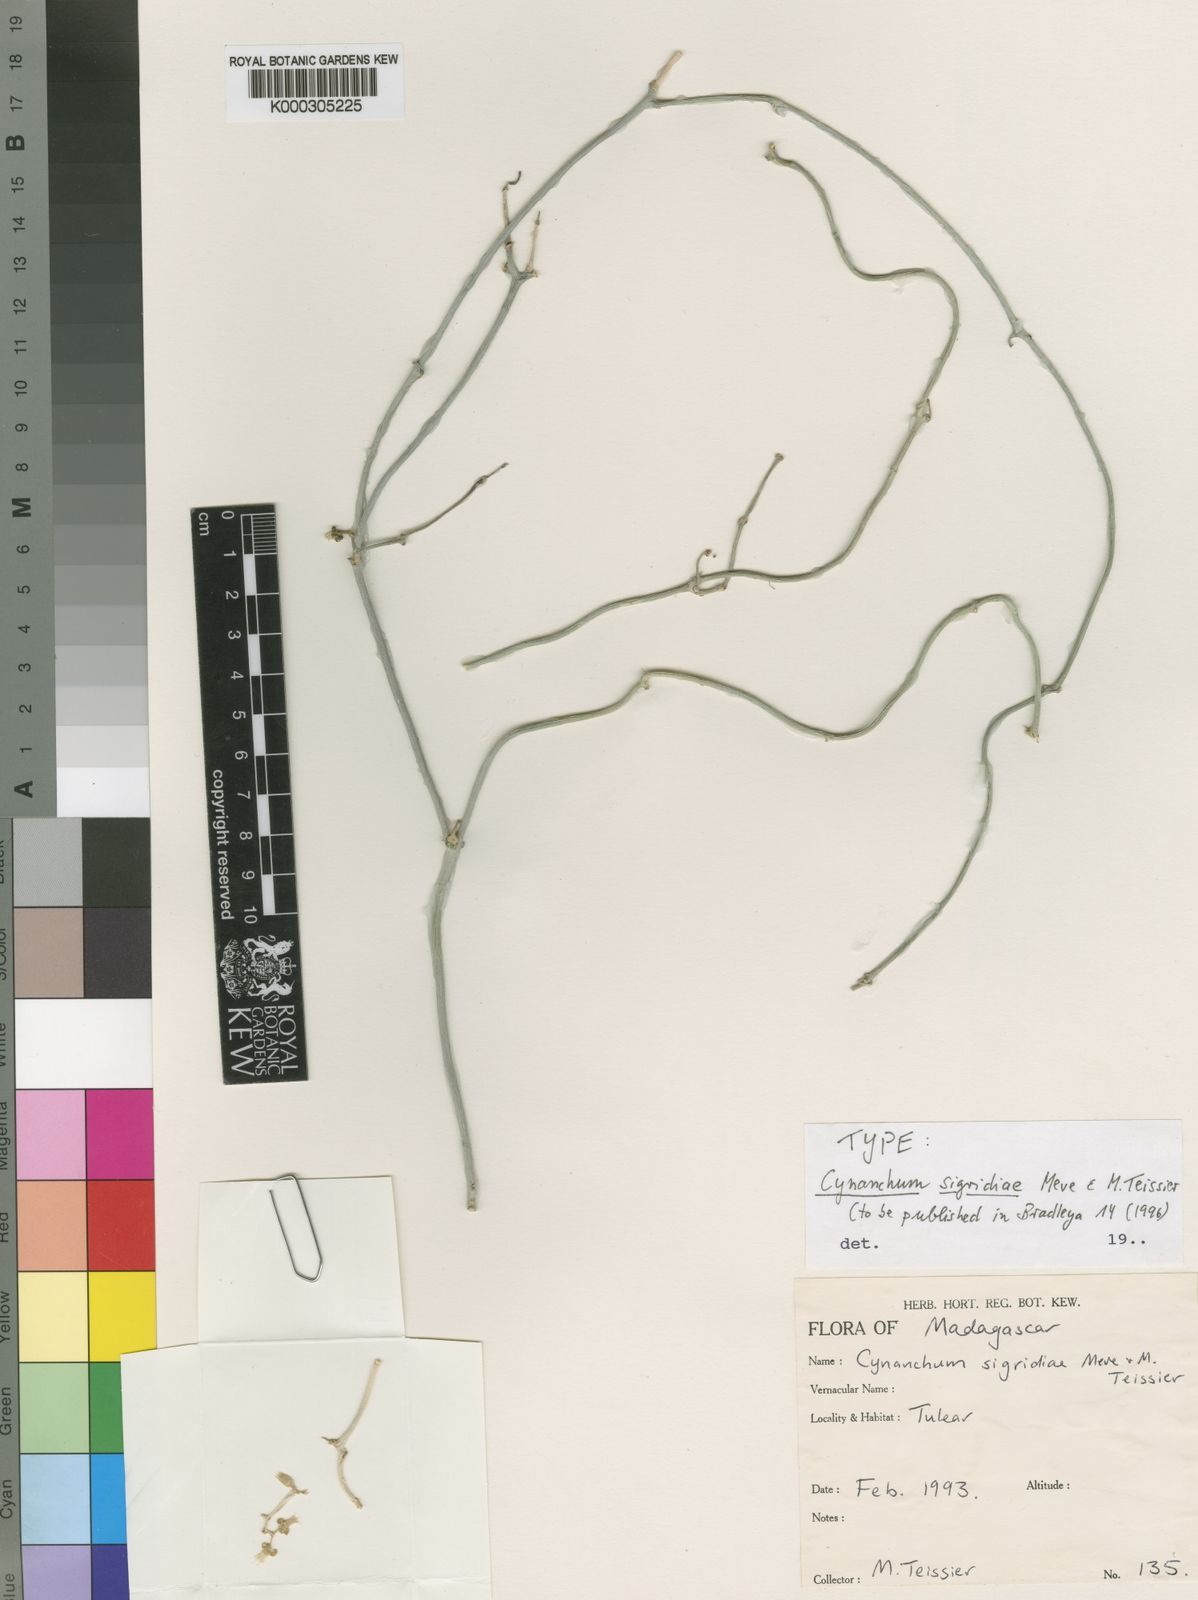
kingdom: Plantae
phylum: Tracheophyta
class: Magnoliopsida
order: Gentianales
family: Apocynaceae
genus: Cynanchum
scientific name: Cynanchum sigridiae
